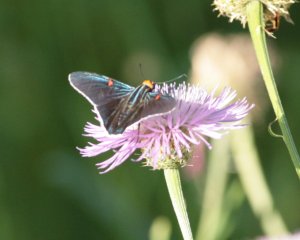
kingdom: Animalia
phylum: Arthropoda
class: Insecta
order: Lepidoptera
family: Hesperiidae
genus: Phocides
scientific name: Phocides polybius
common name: Guava Skipper
